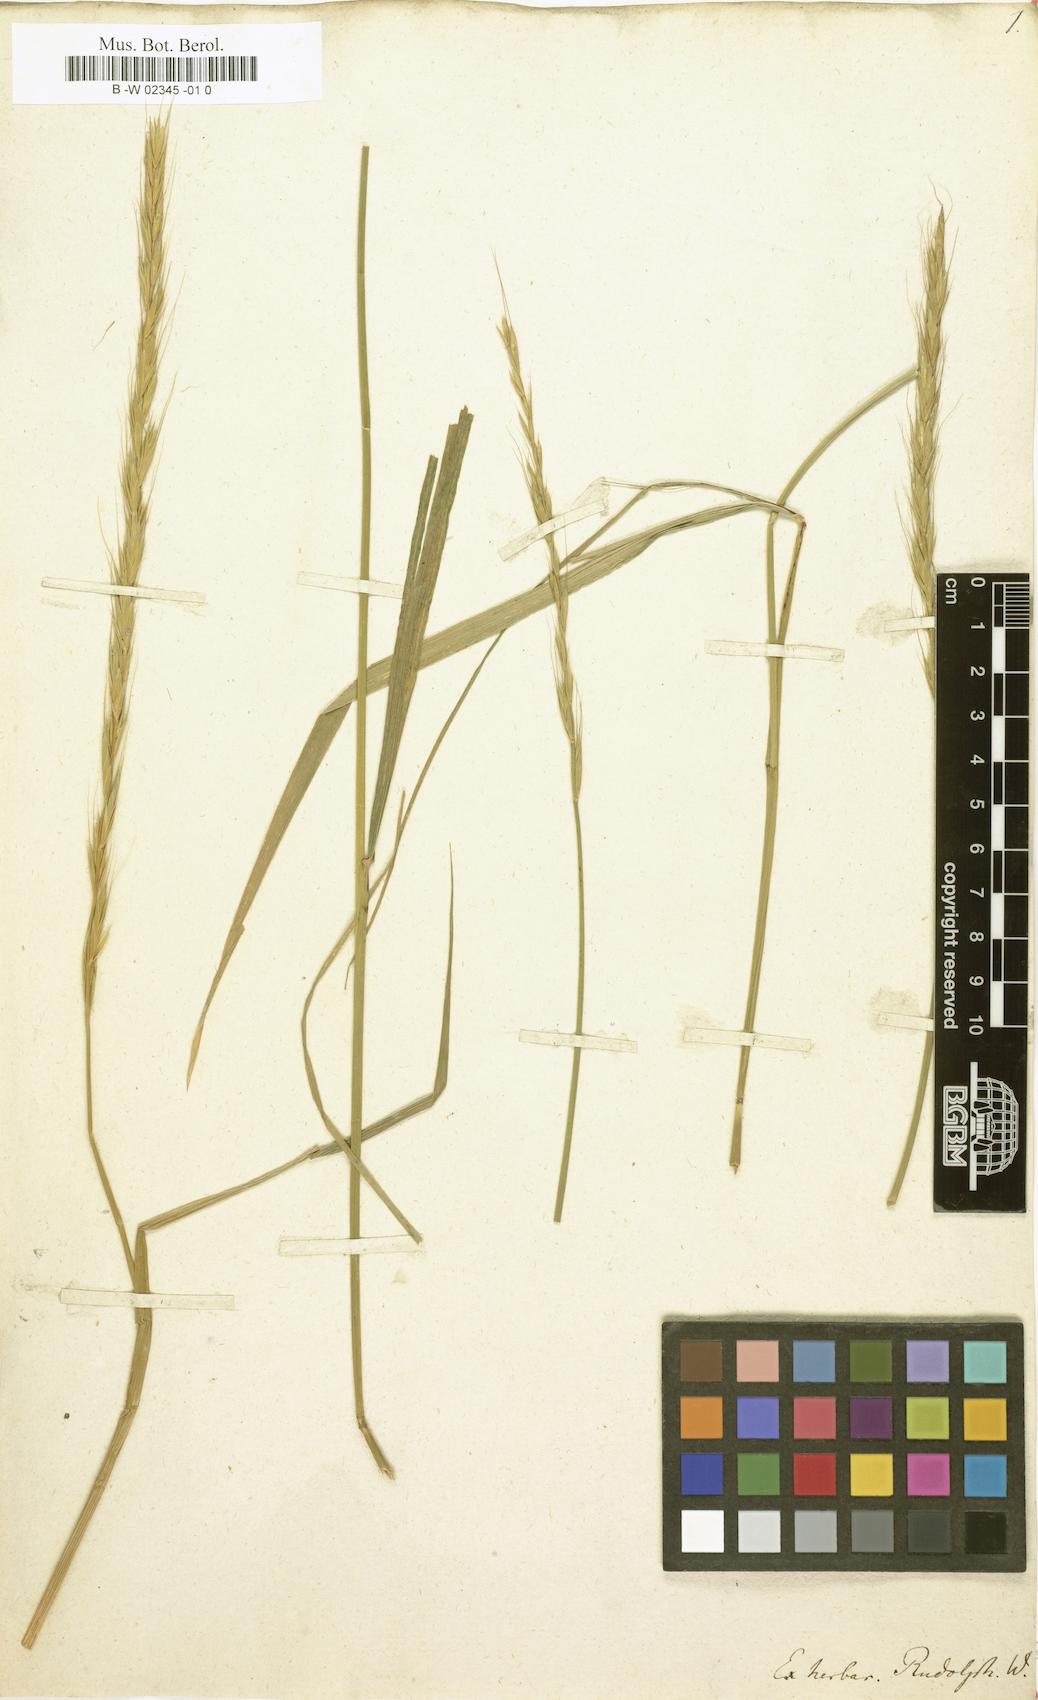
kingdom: Plantae
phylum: Tracheophyta
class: Liliopsida
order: Poales
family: Poaceae
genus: Triticum
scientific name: Triticum caninum
